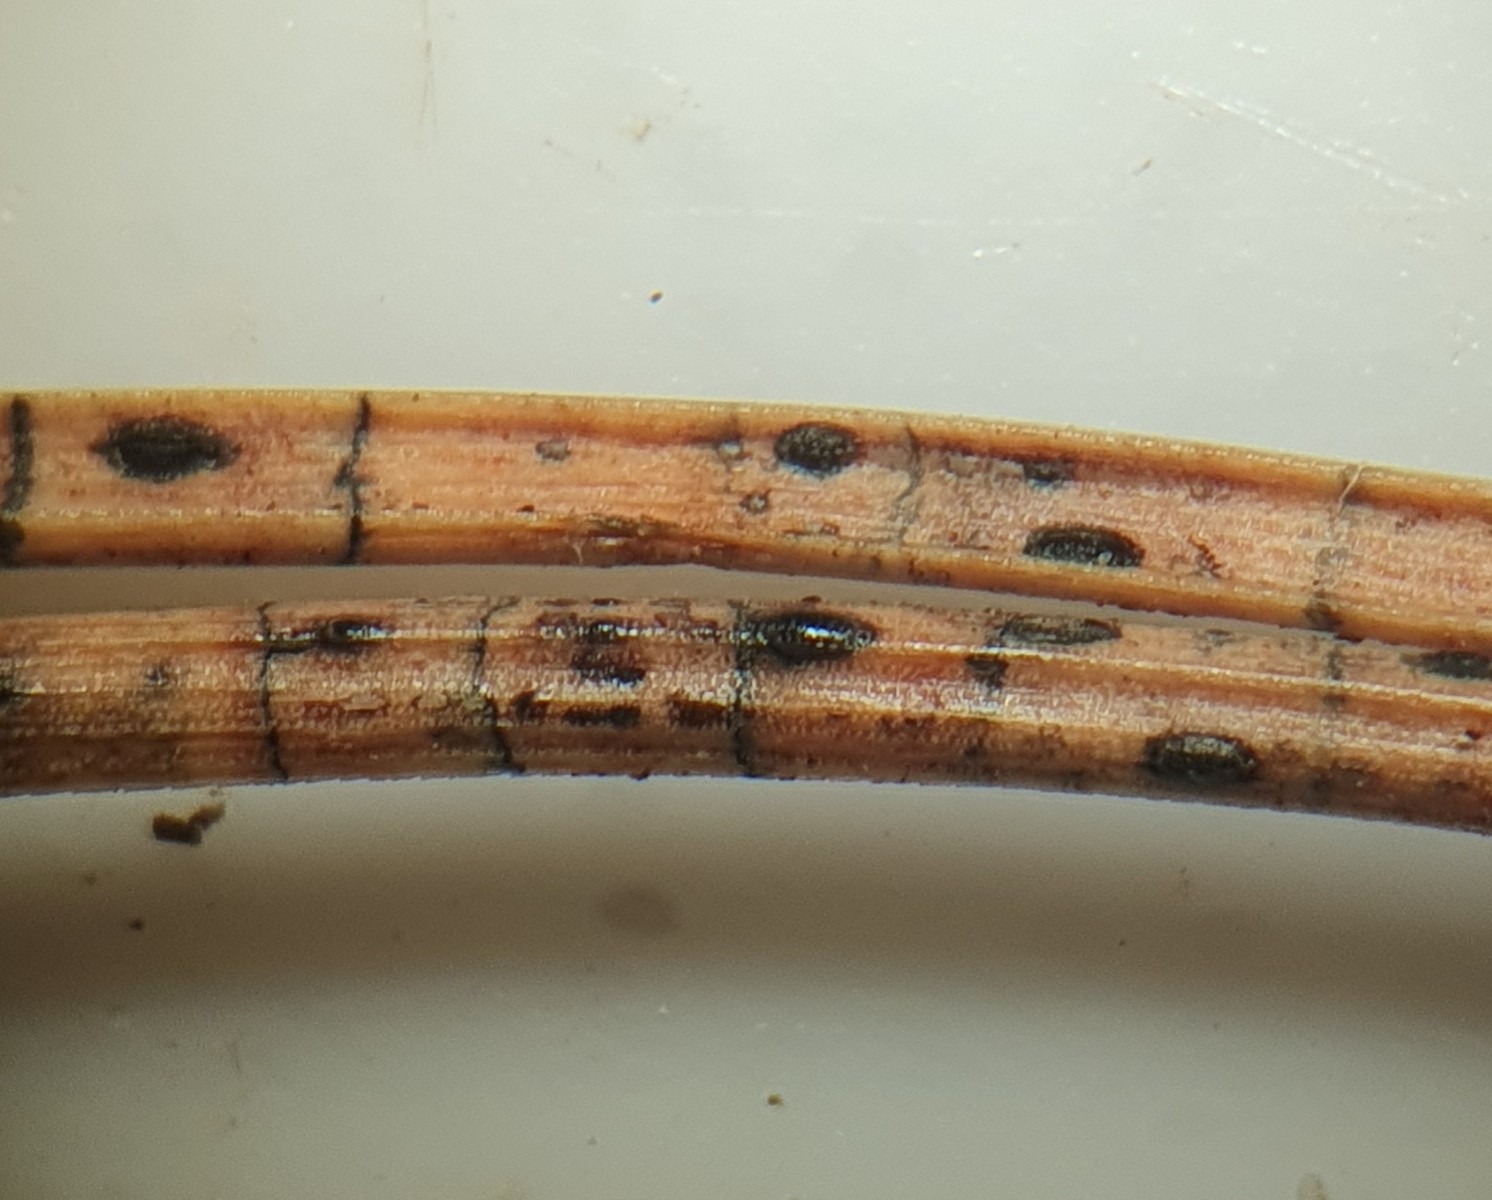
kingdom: Fungi
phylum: Ascomycota
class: Leotiomycetes
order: Rhytismatales
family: Rhytismataceae
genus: Lophodermium
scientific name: Lophodermium pinastri
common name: fyrre-fureplet
